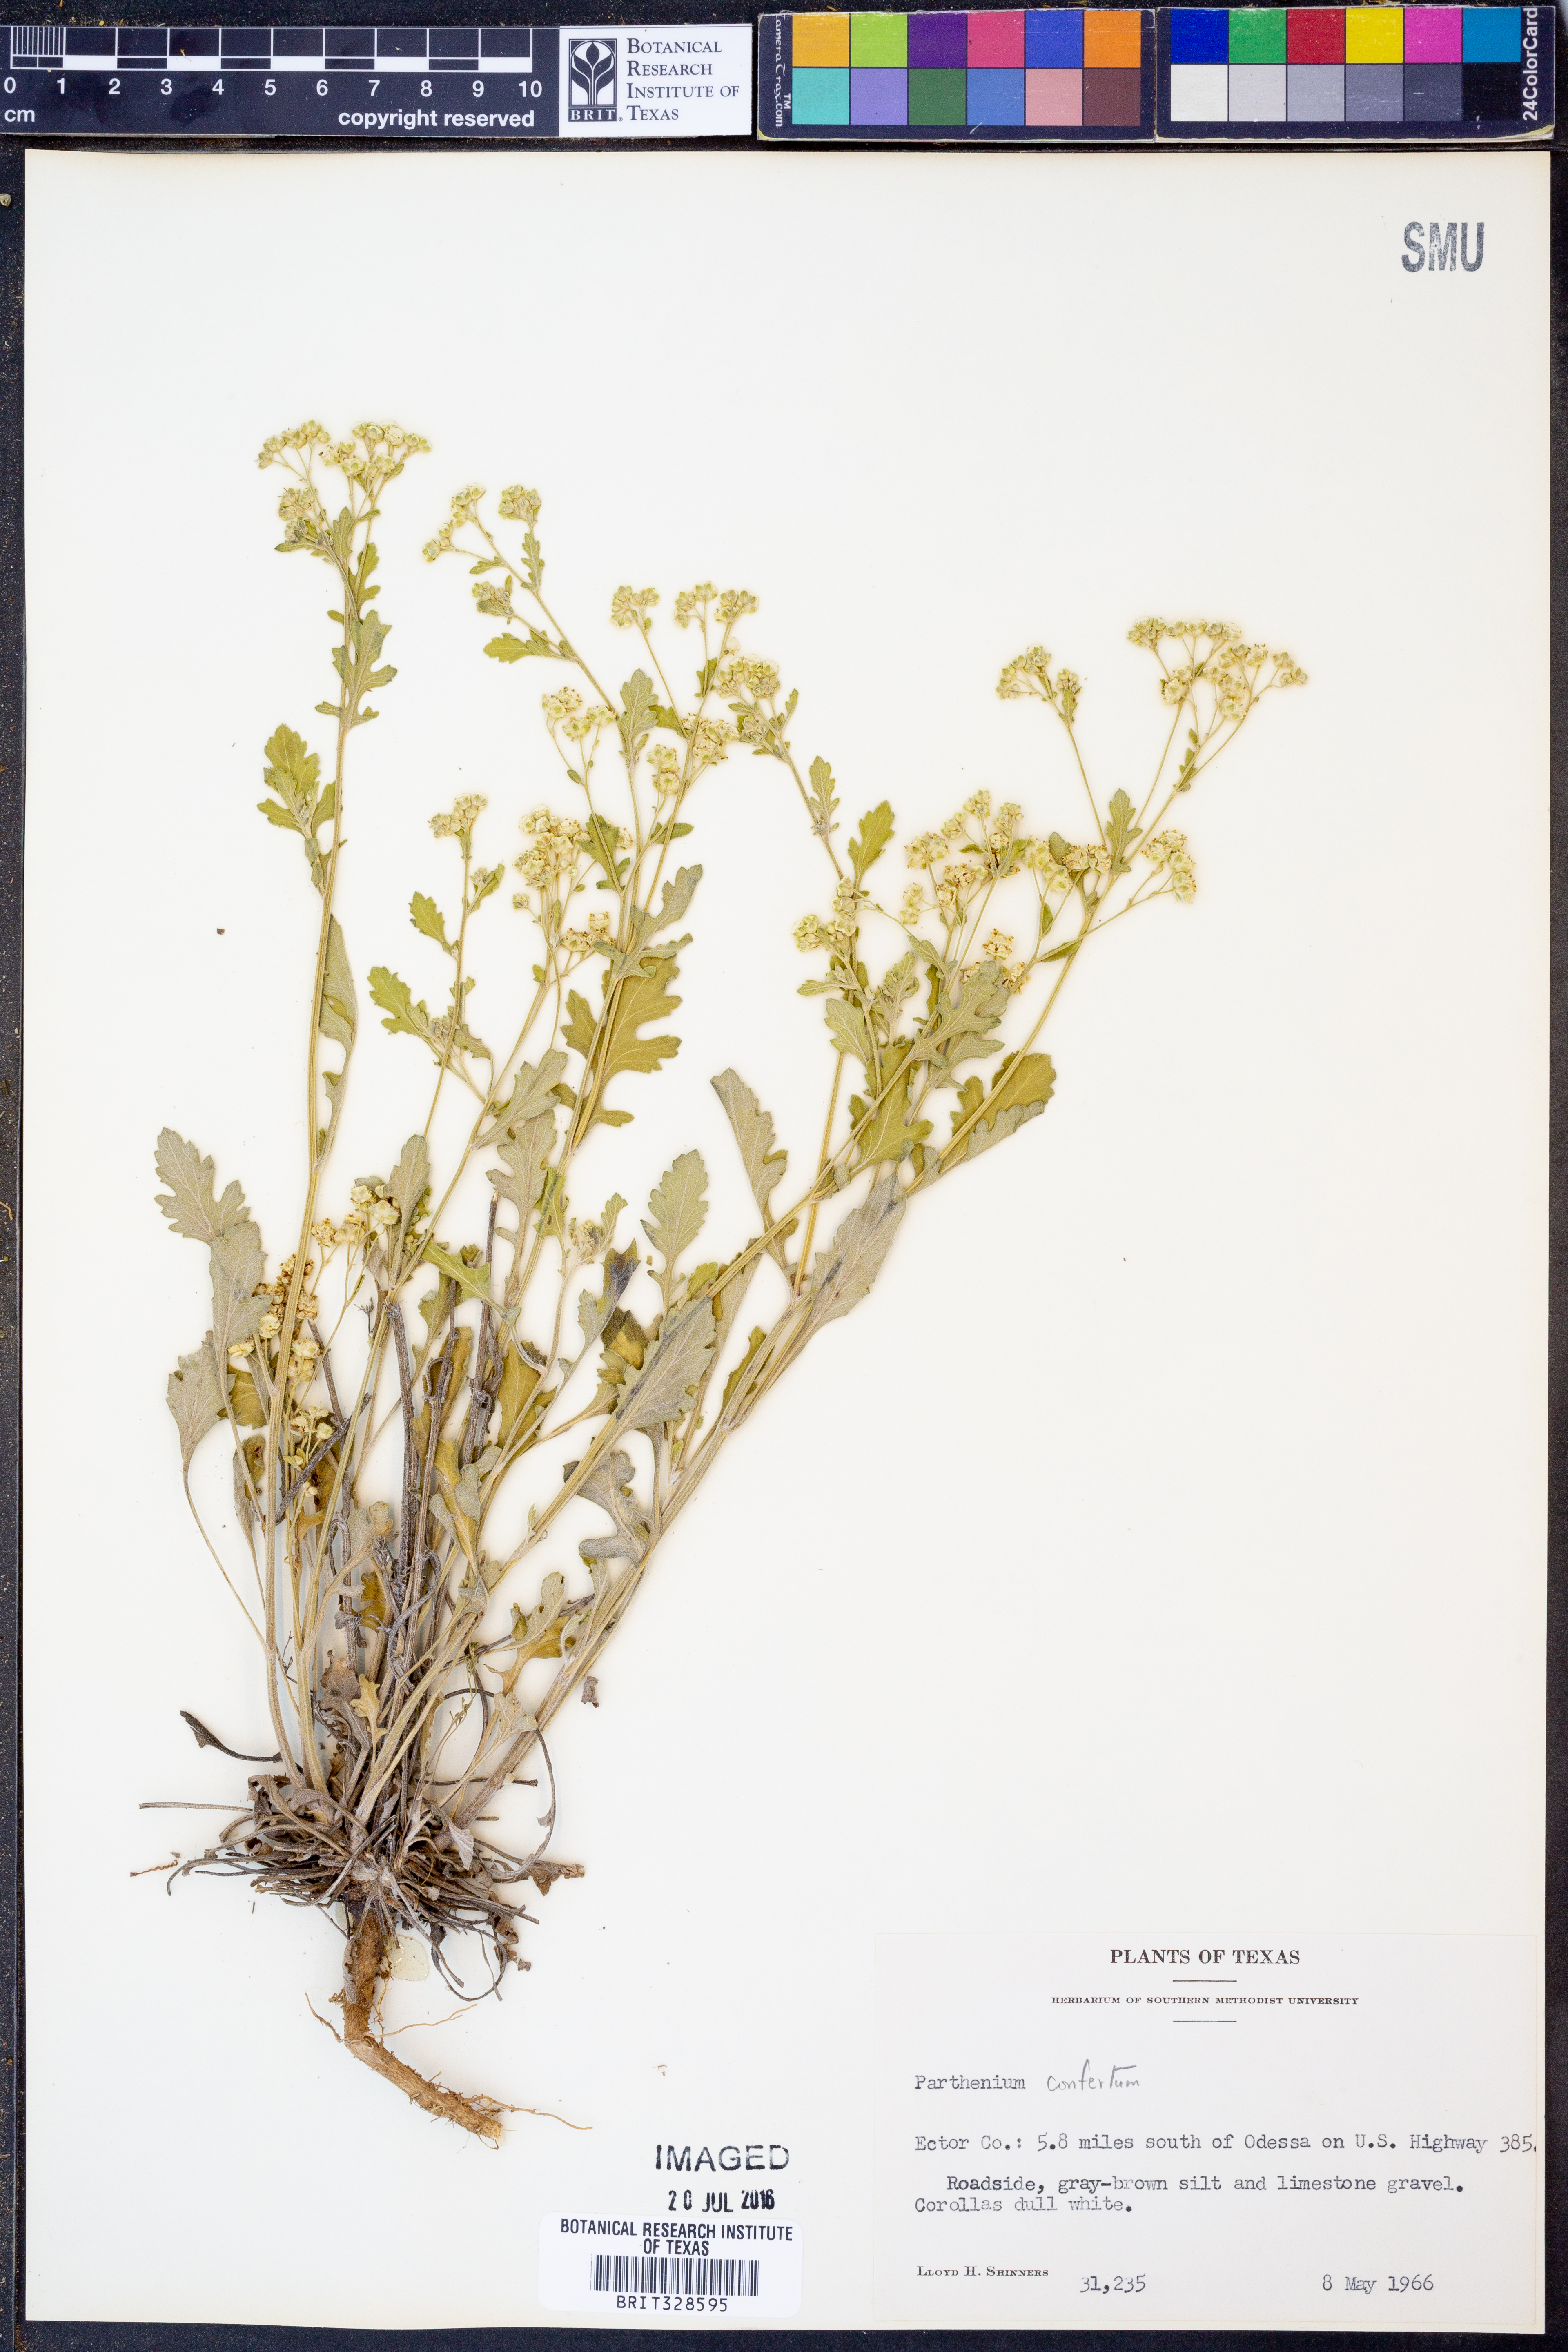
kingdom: Plantae
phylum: Tracheophyta
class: Magnoliopsida
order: Asterales
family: Asteraceae
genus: Parthenium
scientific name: Parthenium confertum
